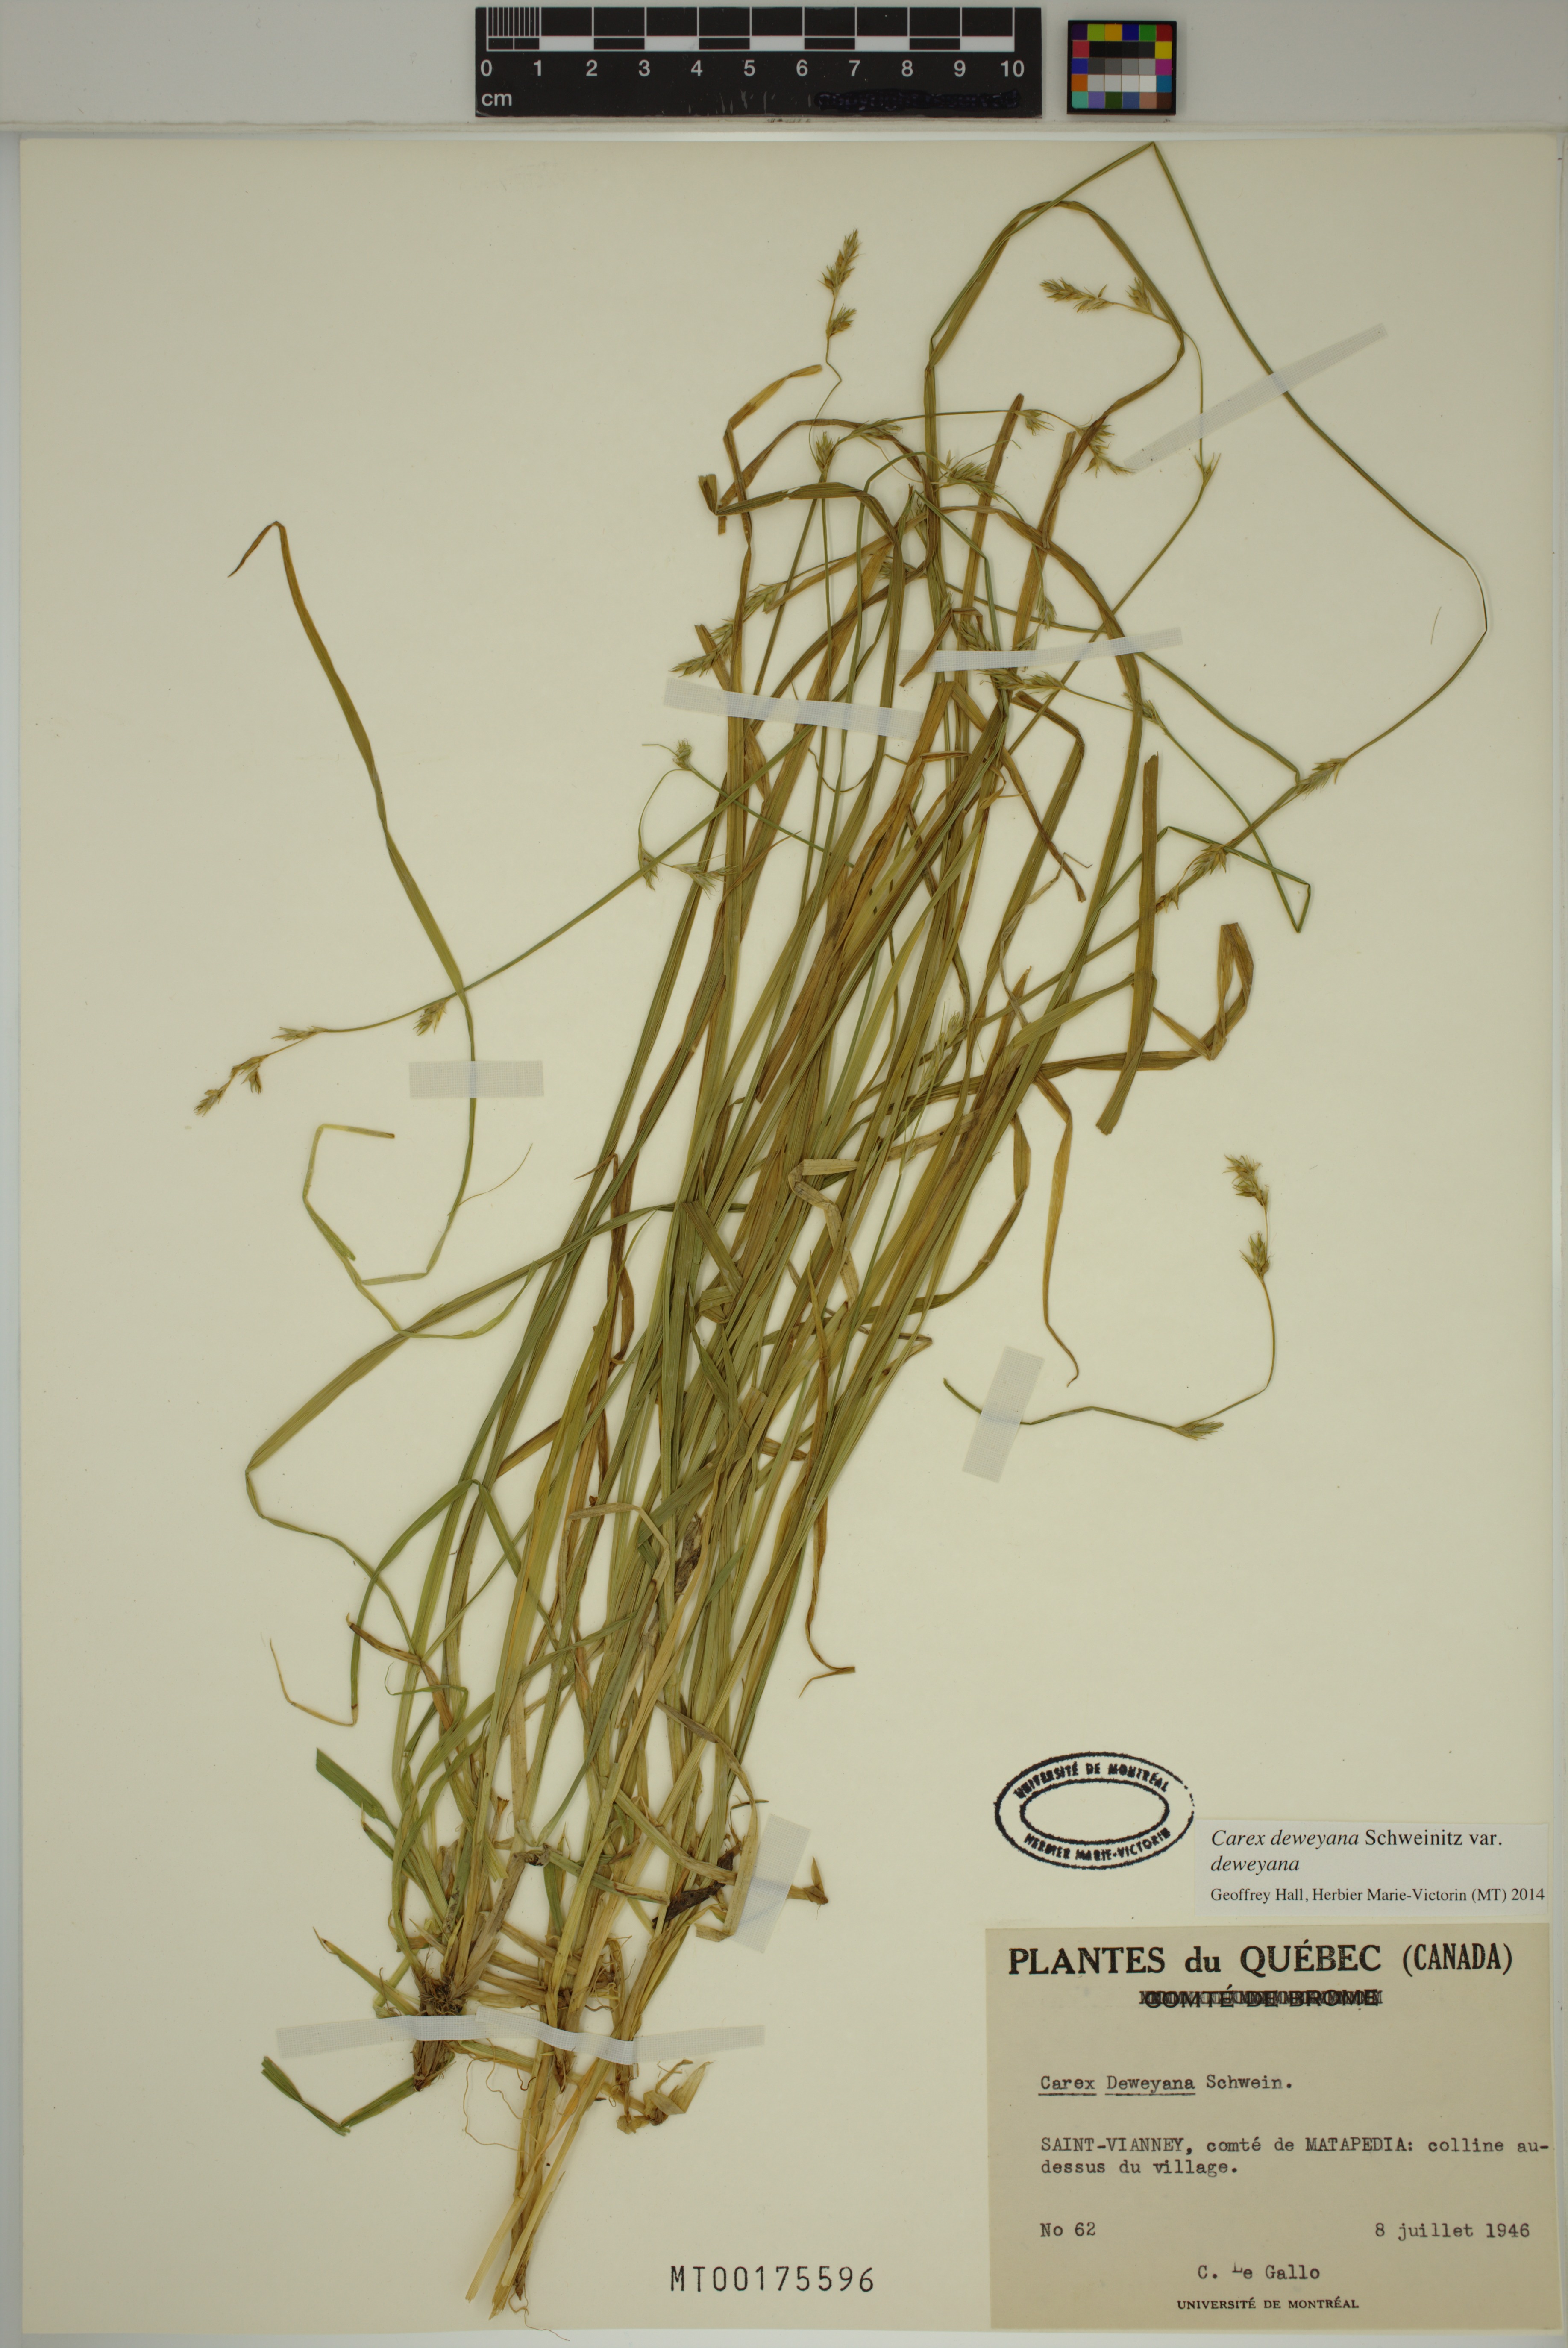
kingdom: Plantae
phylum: Tracheophyta
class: Liliopsida
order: Poales
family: Cyperaceae
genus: Carex
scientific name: Carex deweyana
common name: Dewey's sedge
